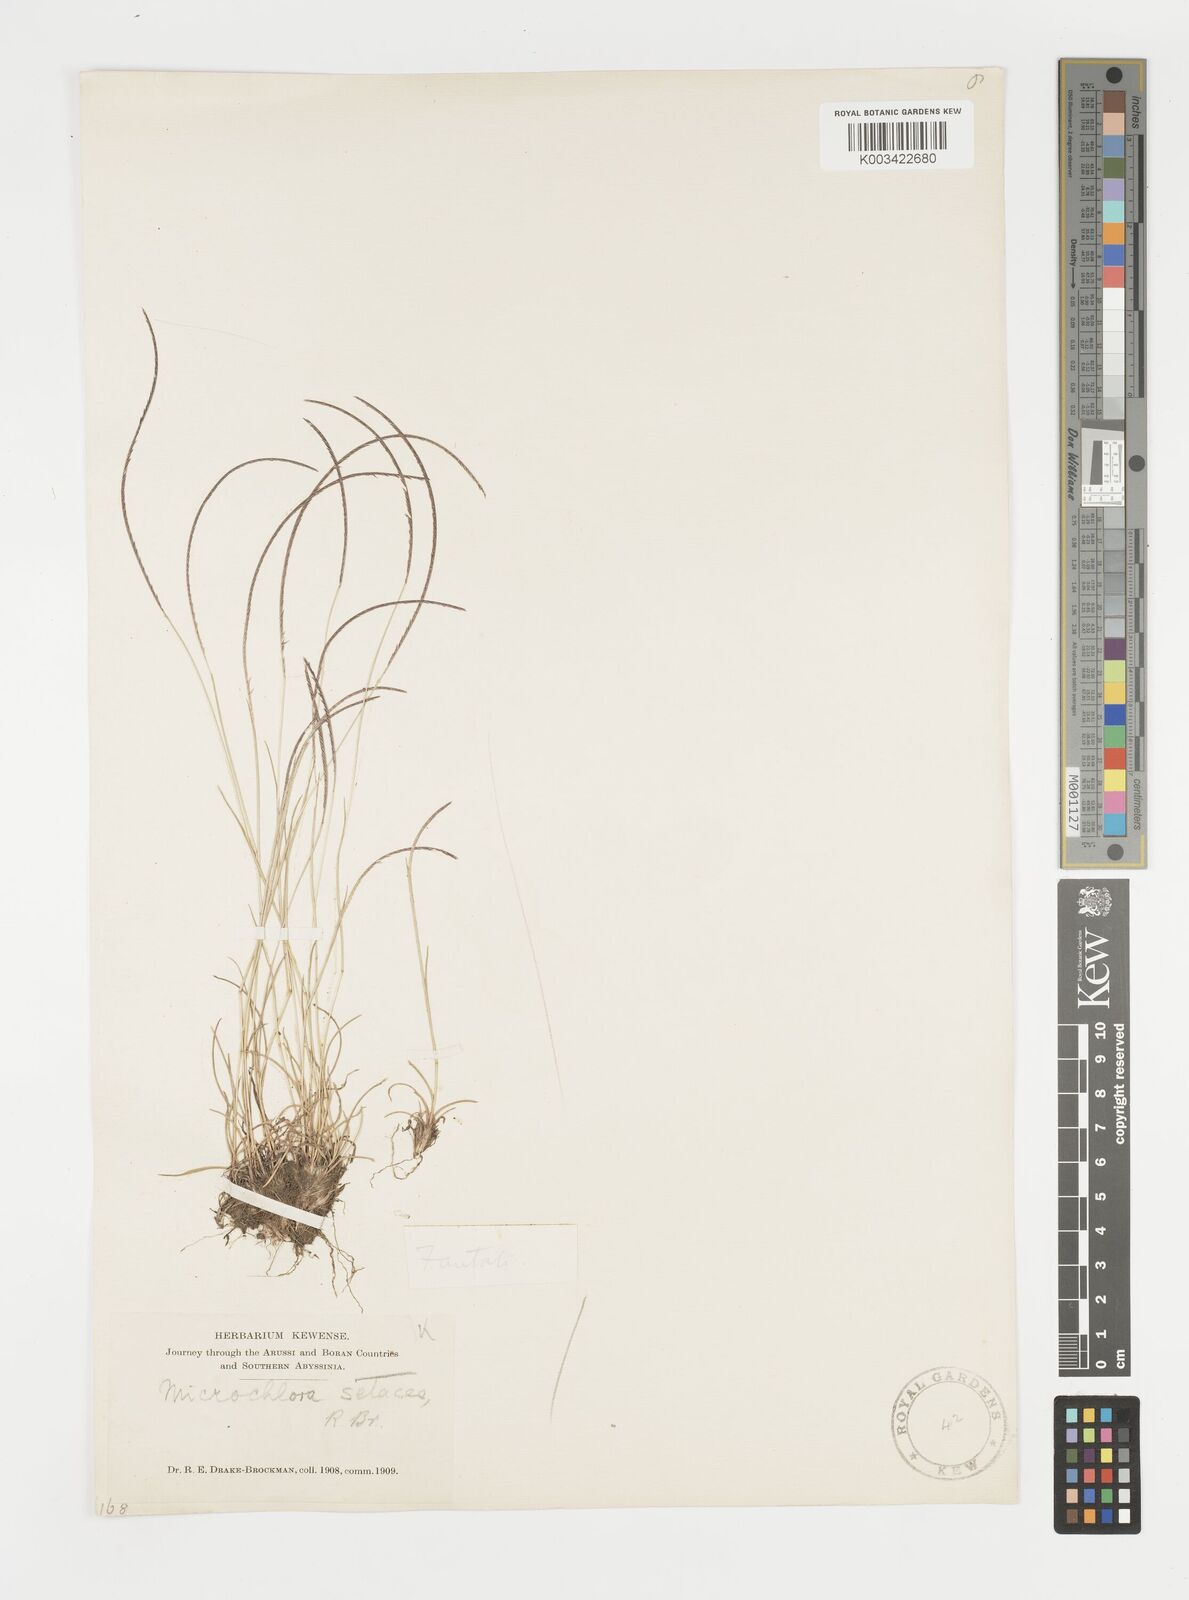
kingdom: Plantae
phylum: Tracheophyta
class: Liliopsida
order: Poales
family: Poaceae
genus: Microchloa
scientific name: Microchloa kunthii
